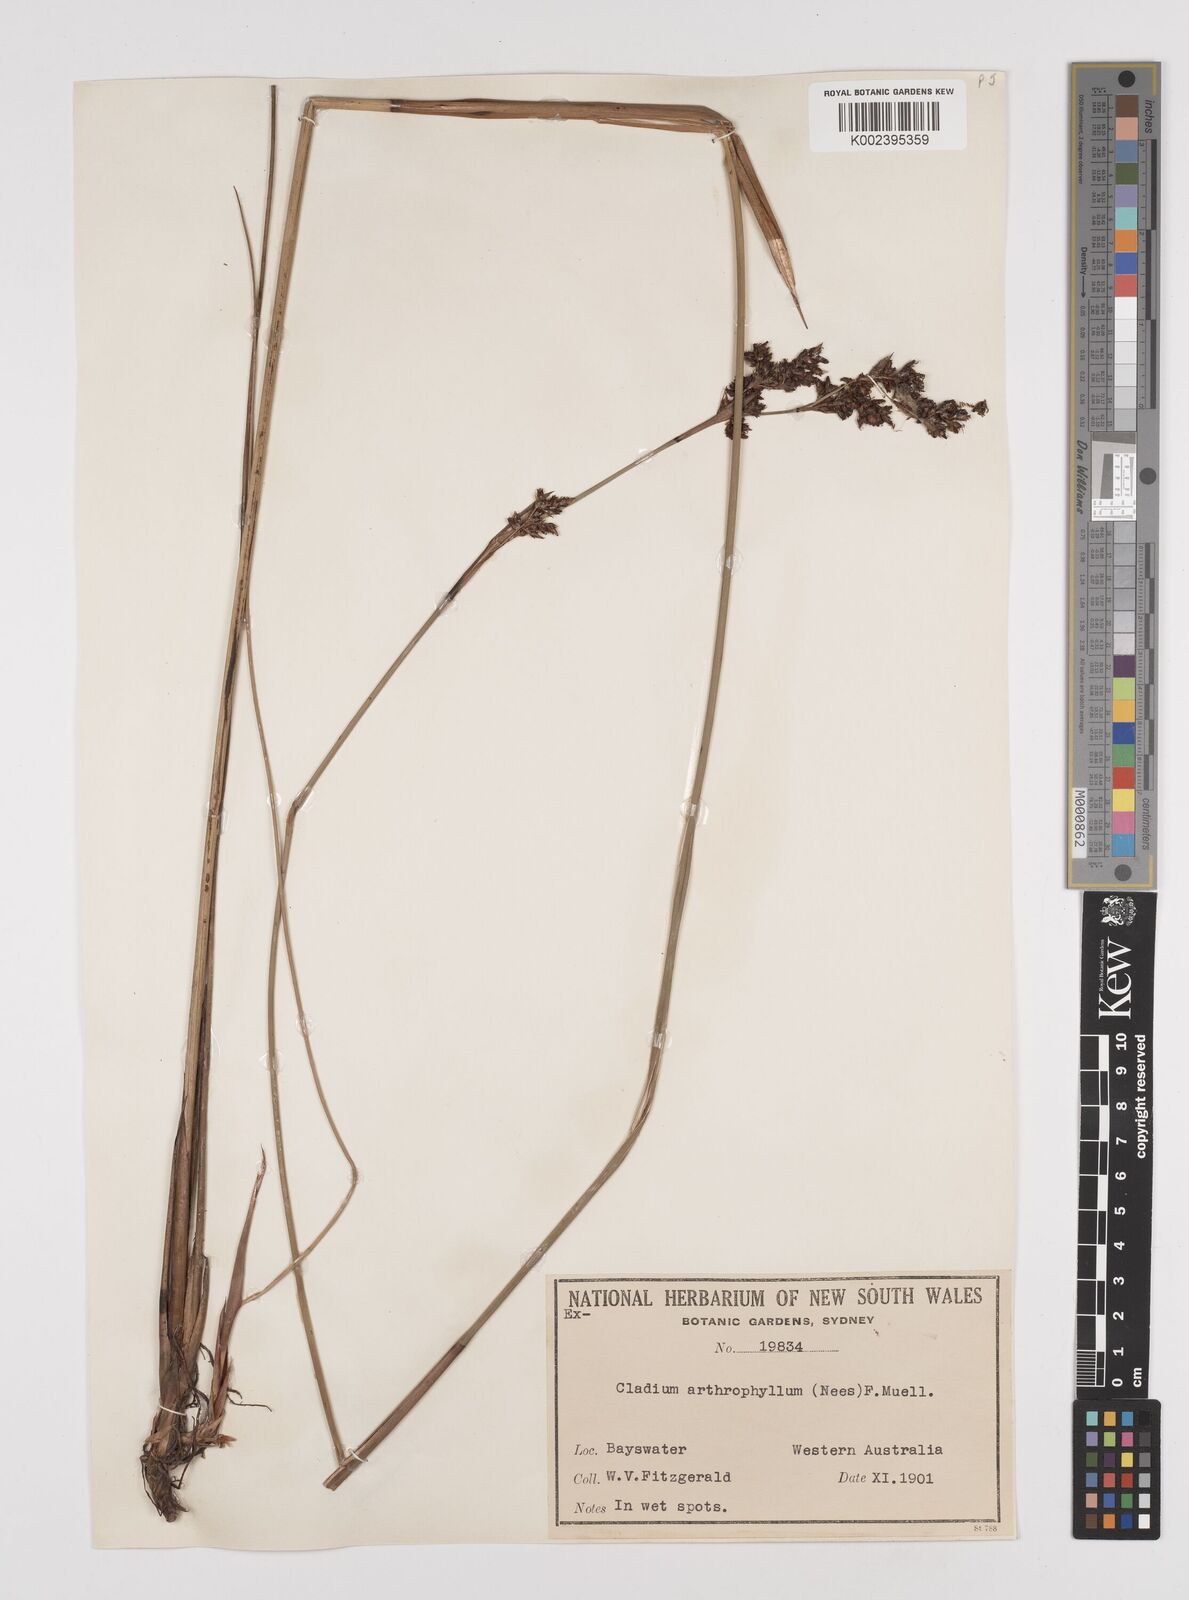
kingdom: Plantae
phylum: Tracheophyta
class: Liliopsida
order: Poales
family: Cyperaceae
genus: Machaerina
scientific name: Machaerina arthrophylla
